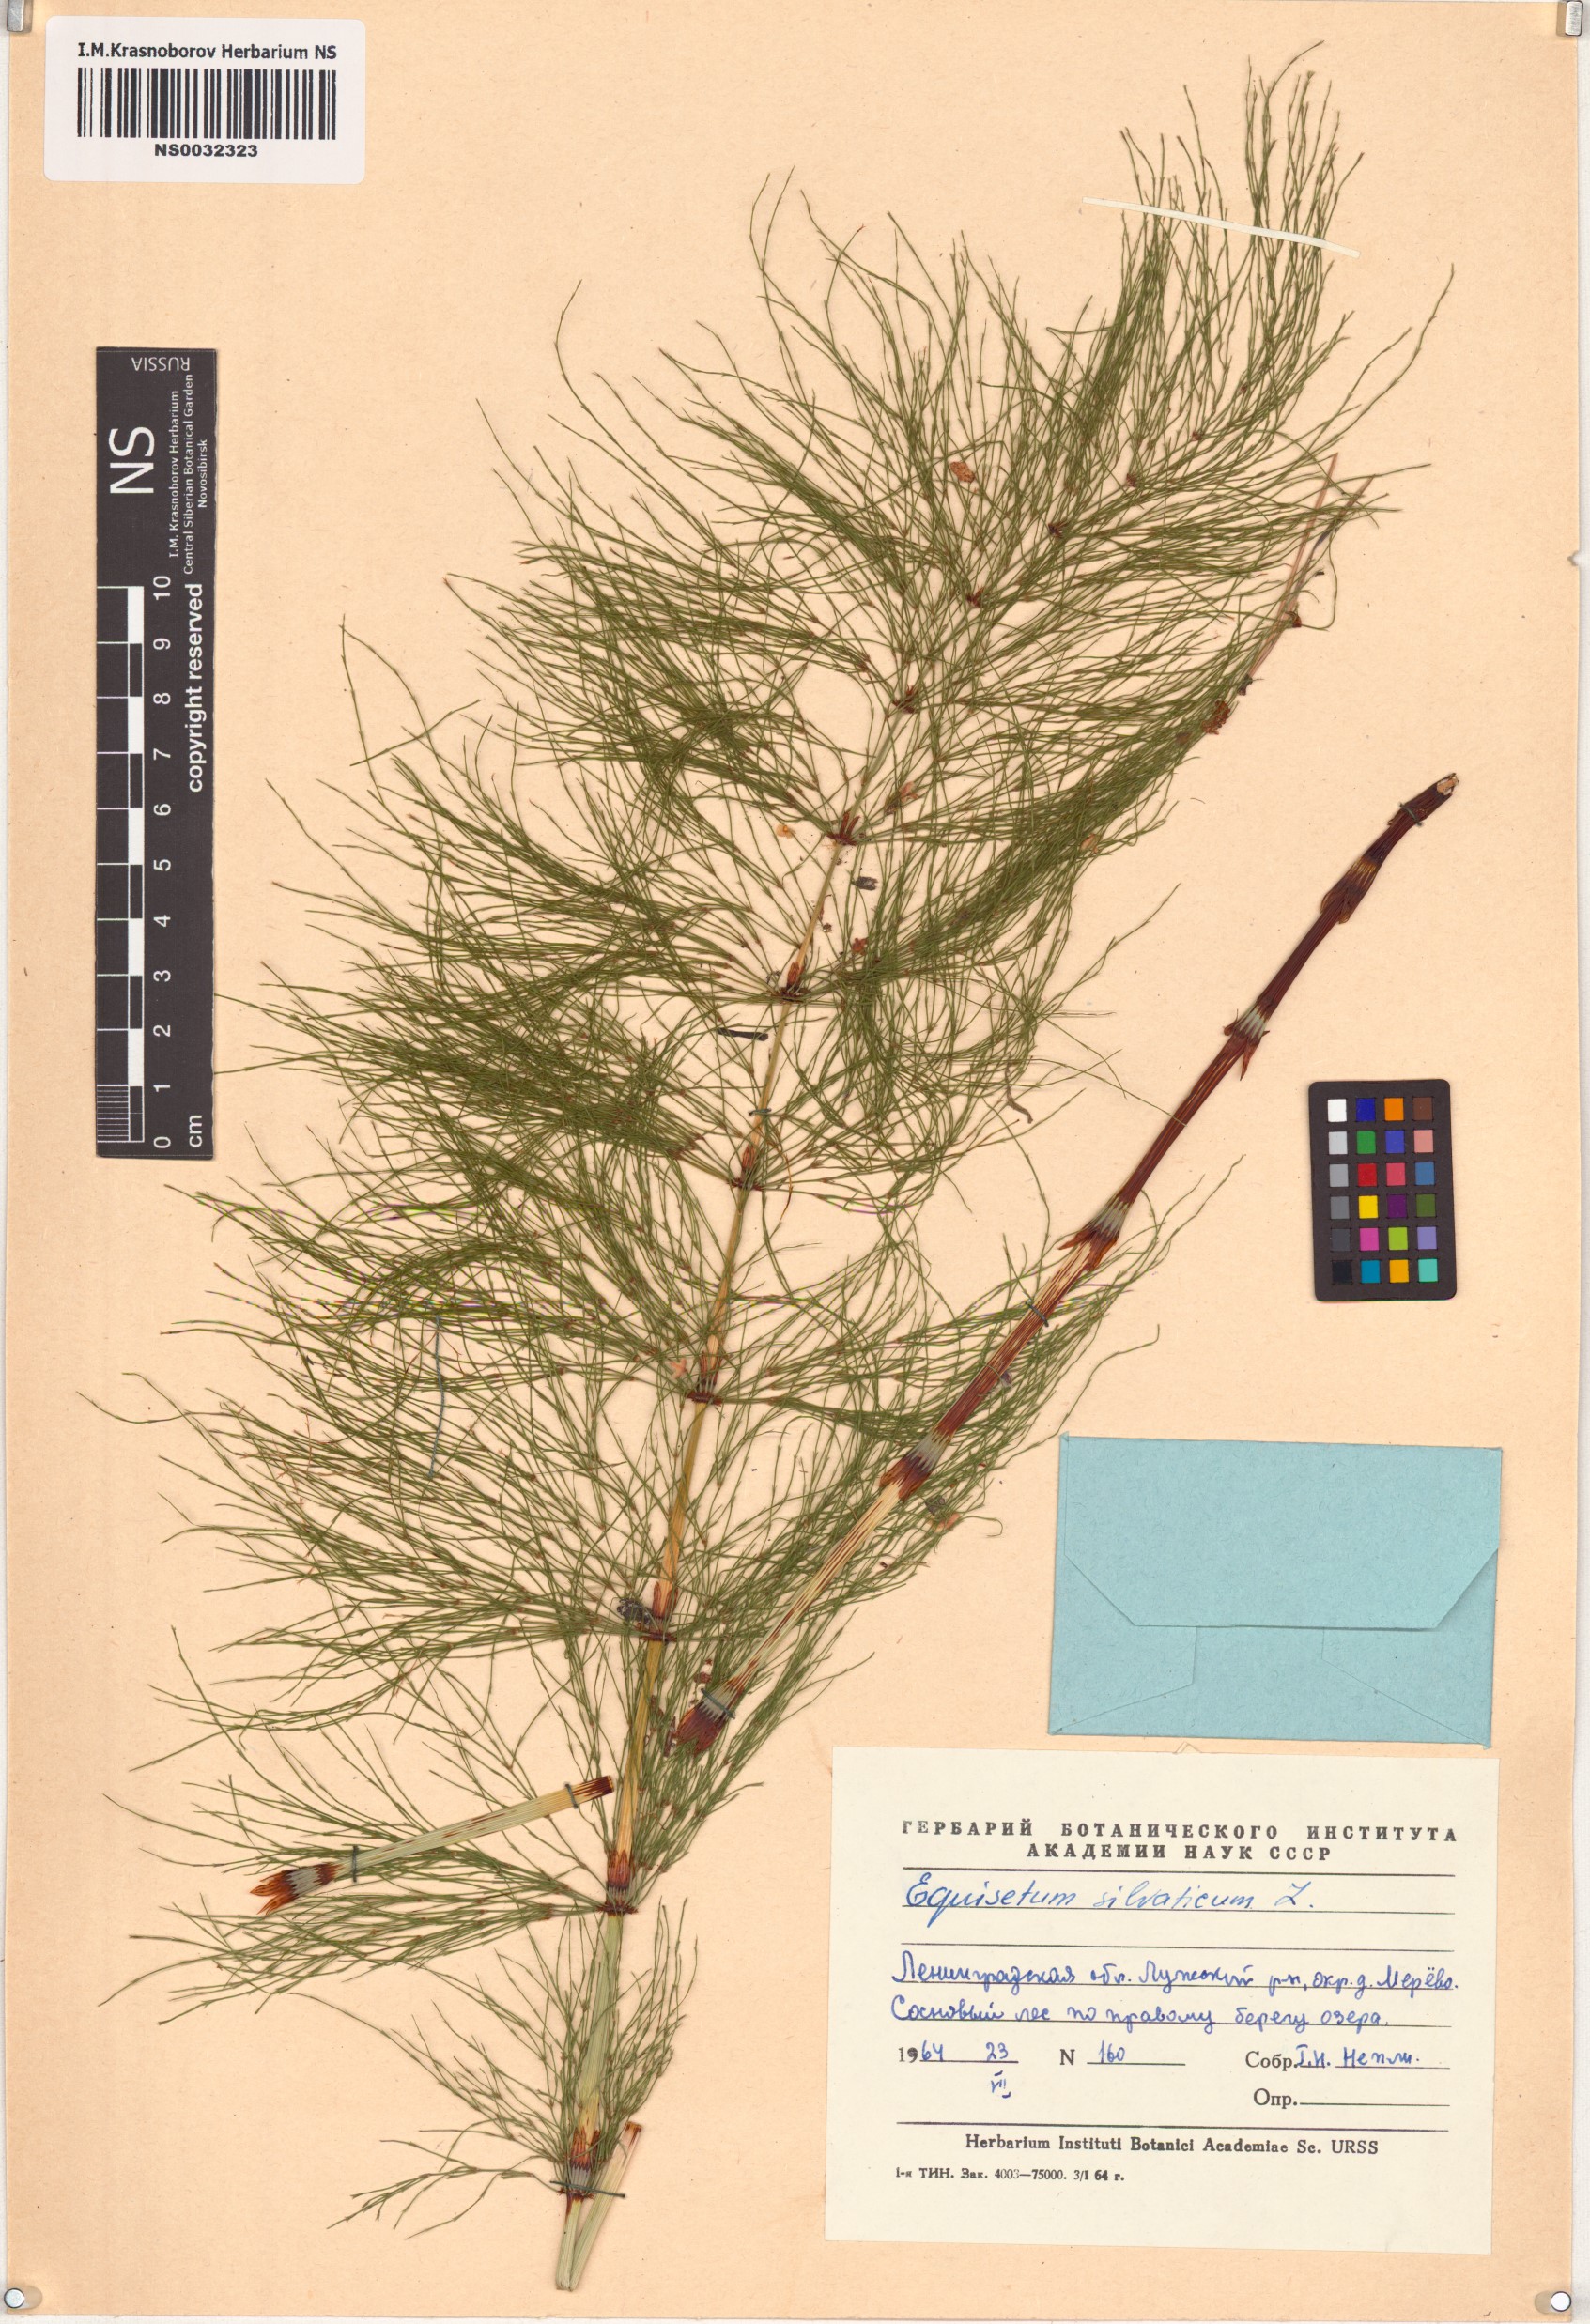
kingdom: Plantae
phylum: Tracheophyta
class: Polypodiopsida
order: Equisetales
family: Equisetaceae
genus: Equisetum
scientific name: Equisetum sylvaticum
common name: Wood horsetail
